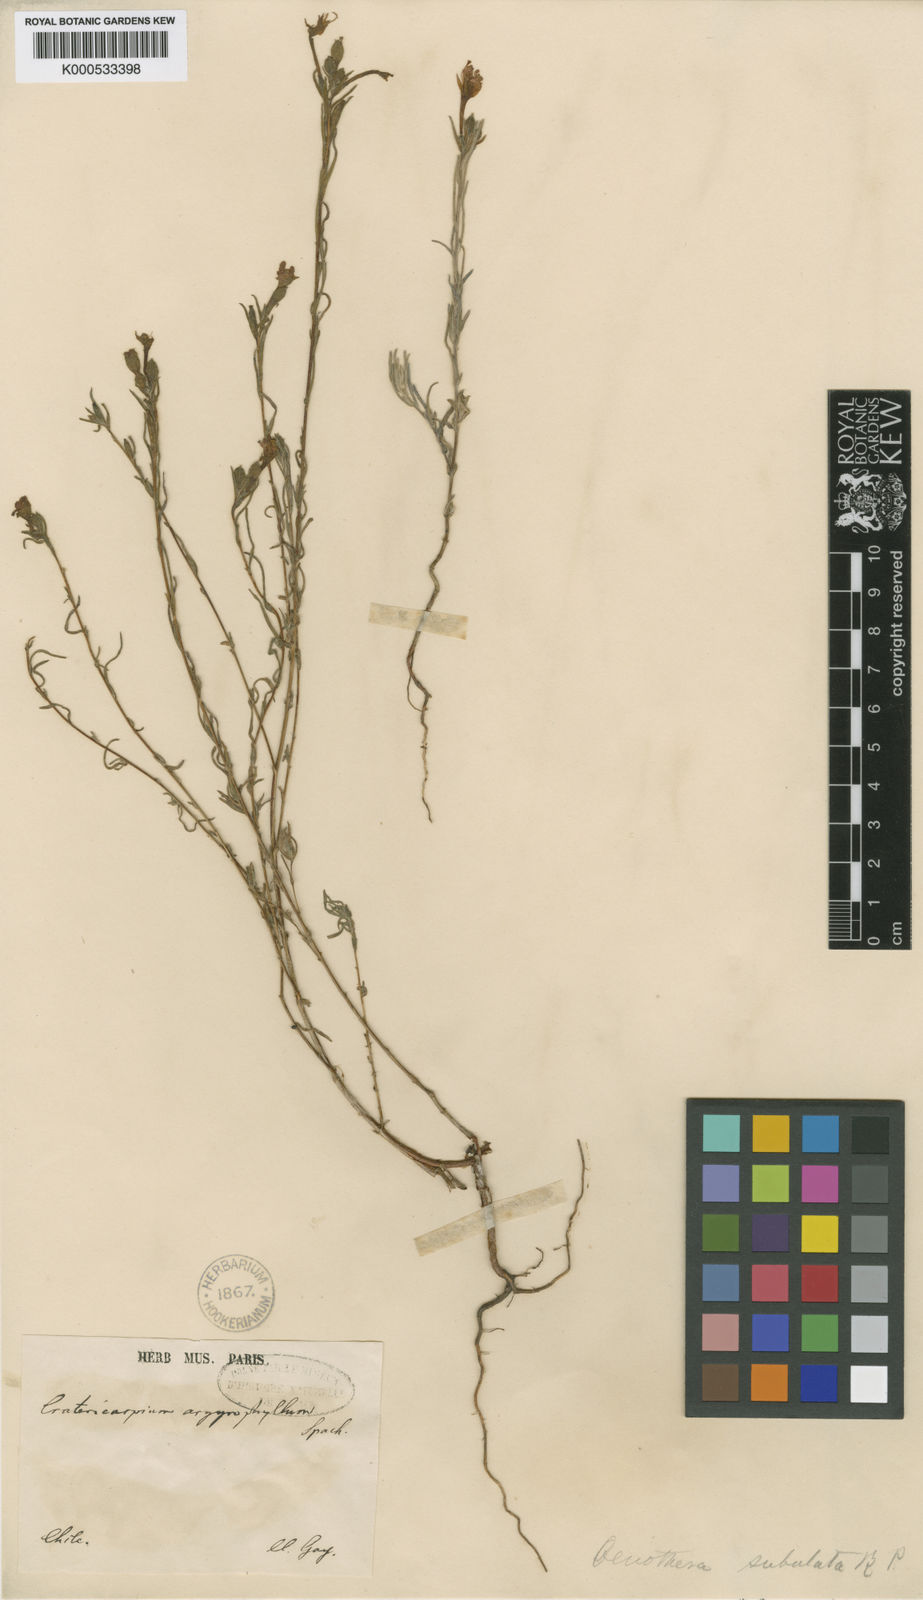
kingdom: Plantae
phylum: Tracheophyta
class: Magnoliopsida
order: Myrtales
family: Onagraceae
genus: Epilobium
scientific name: Epilobium subdentatum
